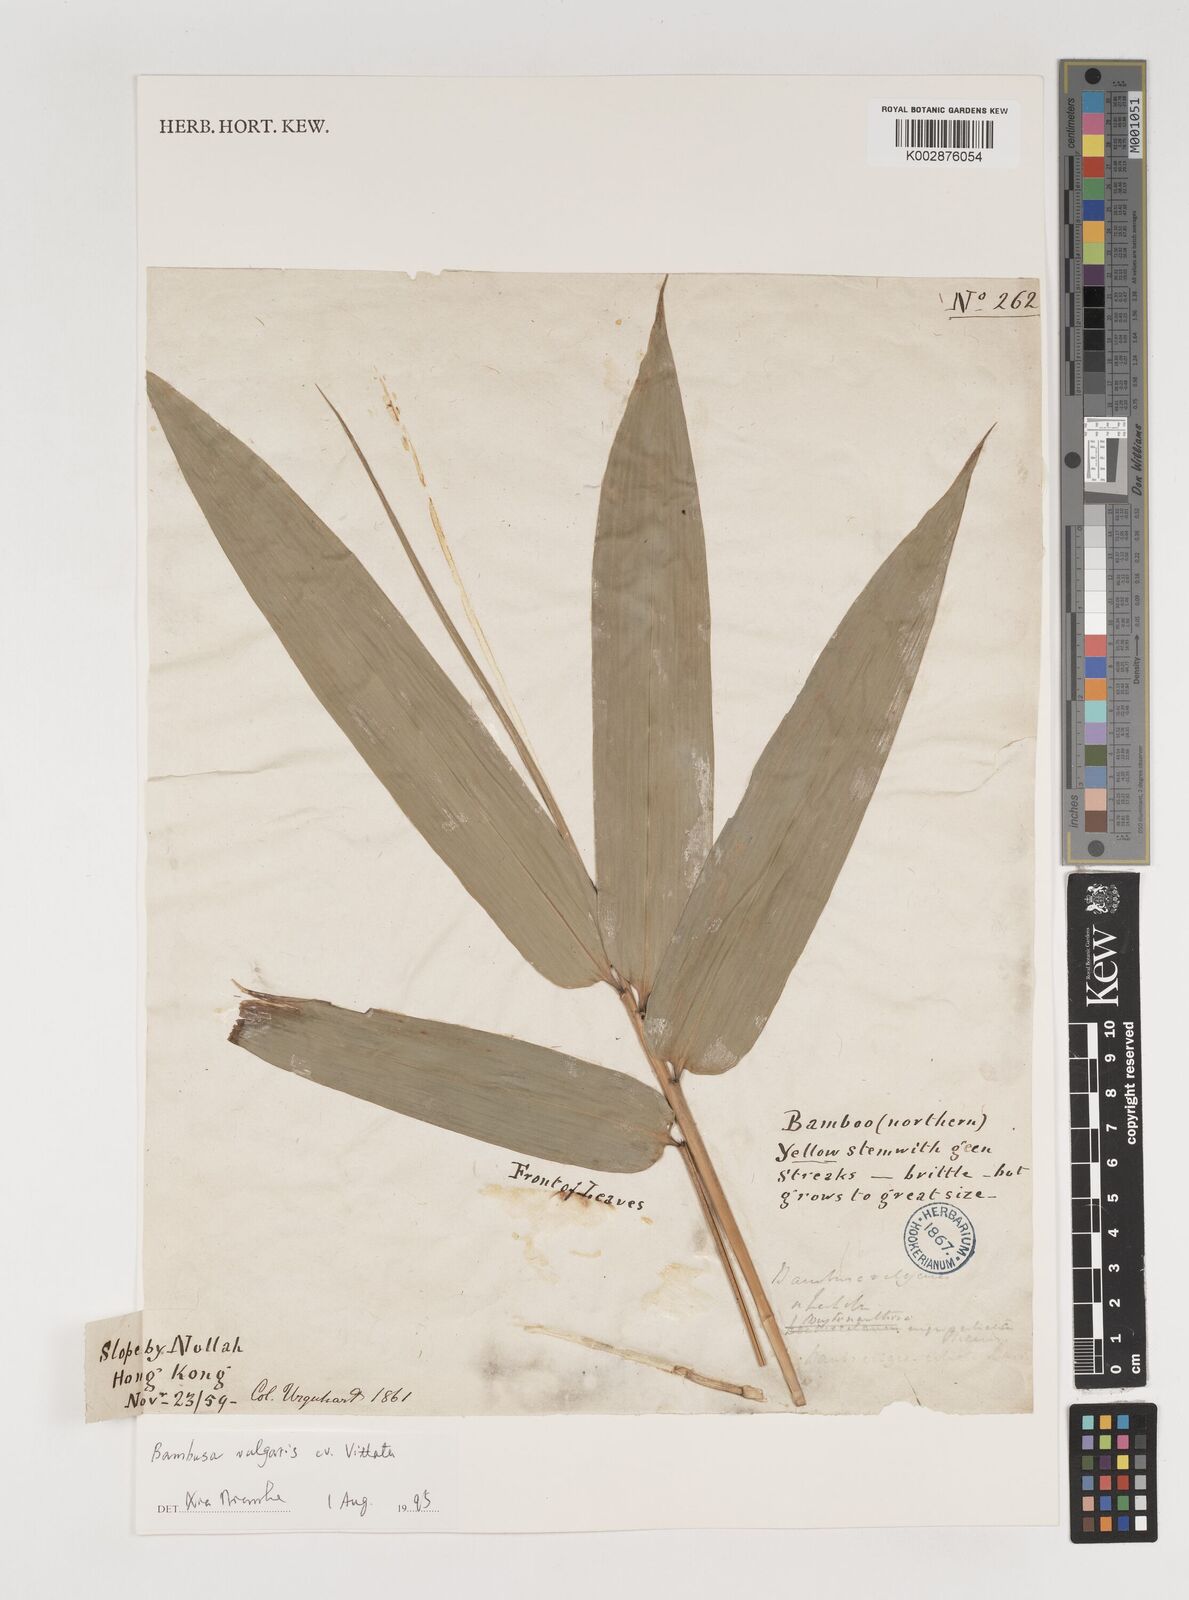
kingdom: Plantae
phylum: Tracheophyta
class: Liliopsida
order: Poales
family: Poaceae
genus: Bambusa
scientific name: Bambusa vulgaris
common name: Common bamboo
